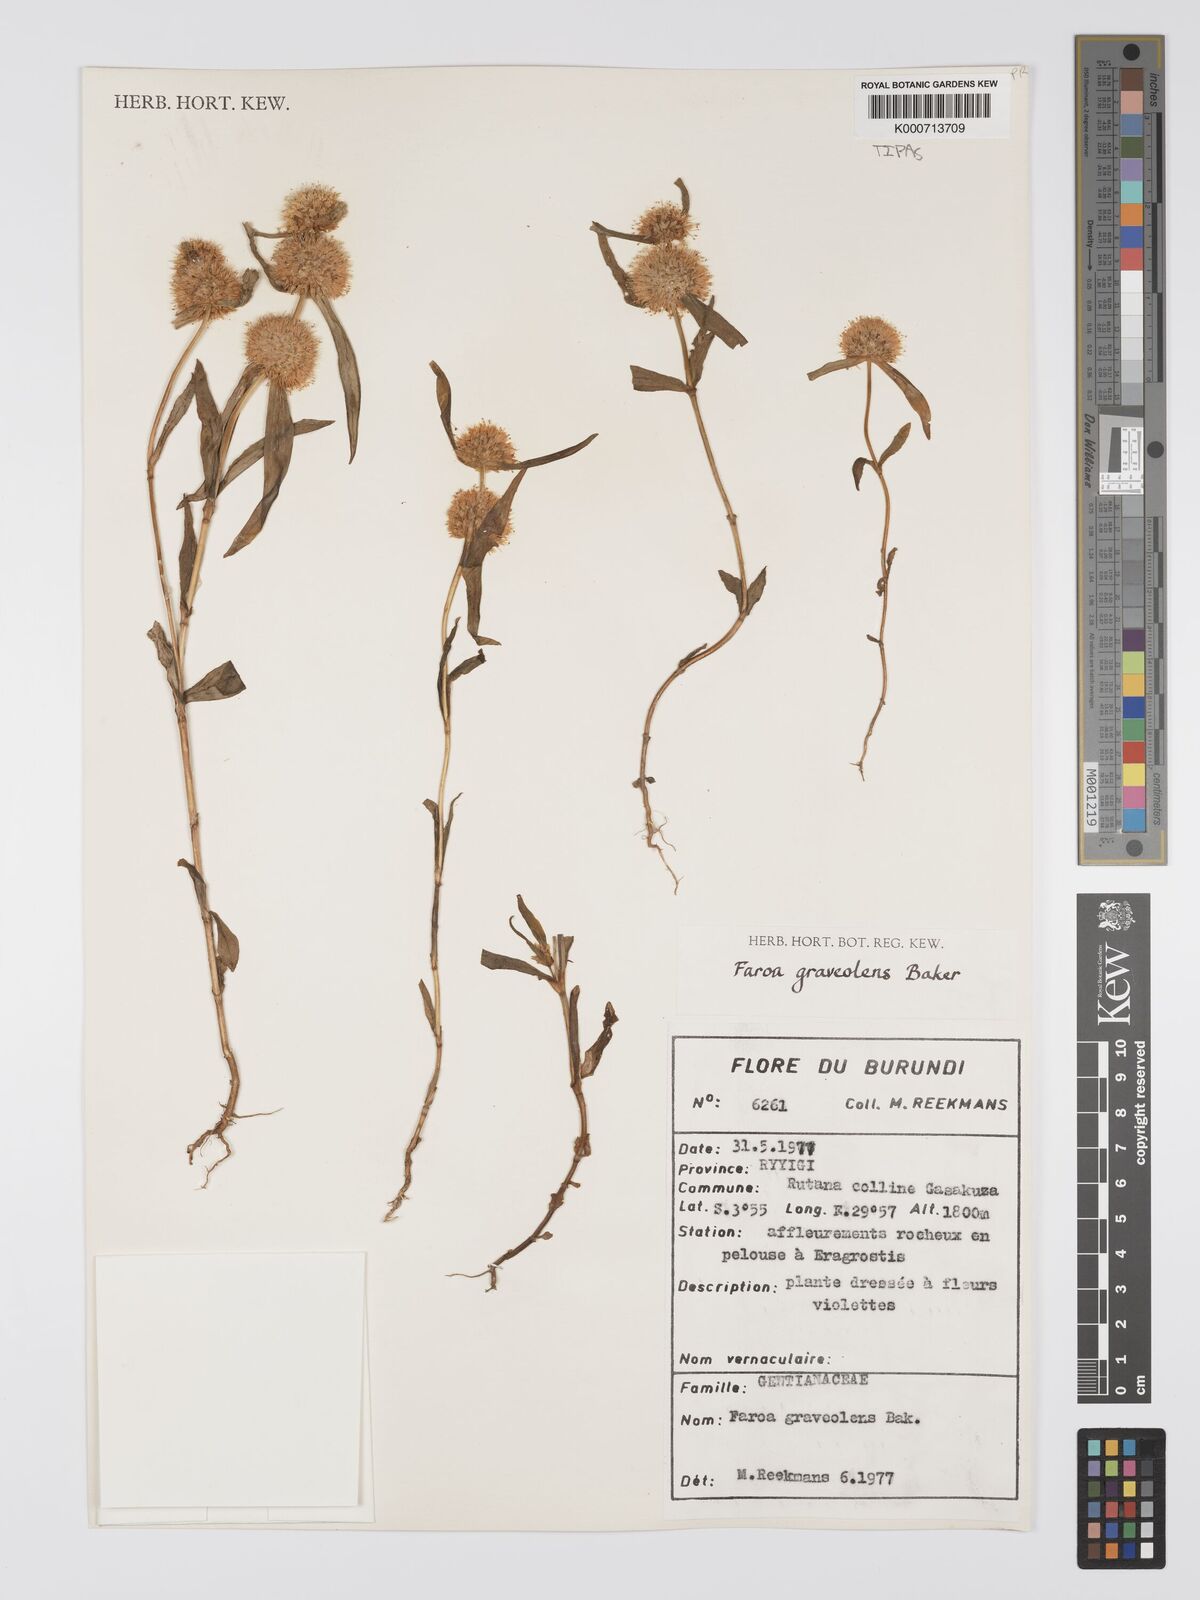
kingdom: Plantae
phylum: Tracheophyta
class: Magnoliopsida
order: Gentianales
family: Gentianaceae
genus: Faroa
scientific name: Faroa graveolens
